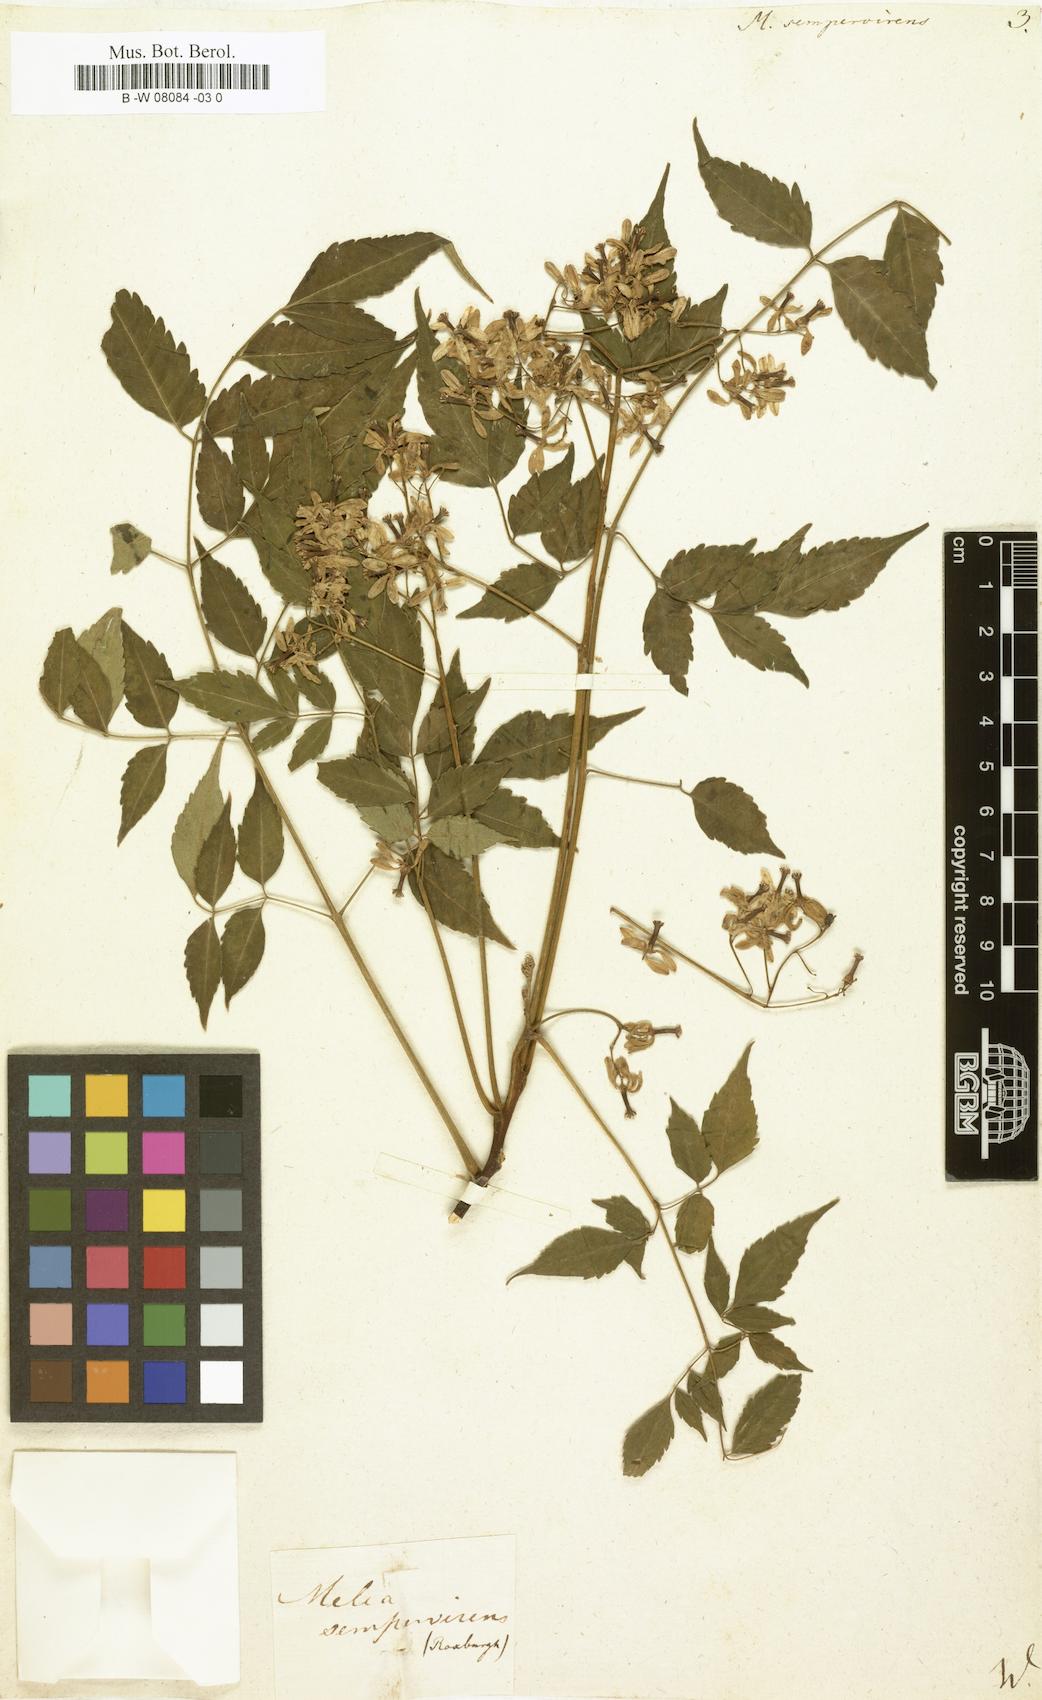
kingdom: Plantae
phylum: Tracheophyta
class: Magnoliopsida
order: Sapindales
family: Meliaceae
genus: Melia
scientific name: Melia azedarach
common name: Chinaberrytree
